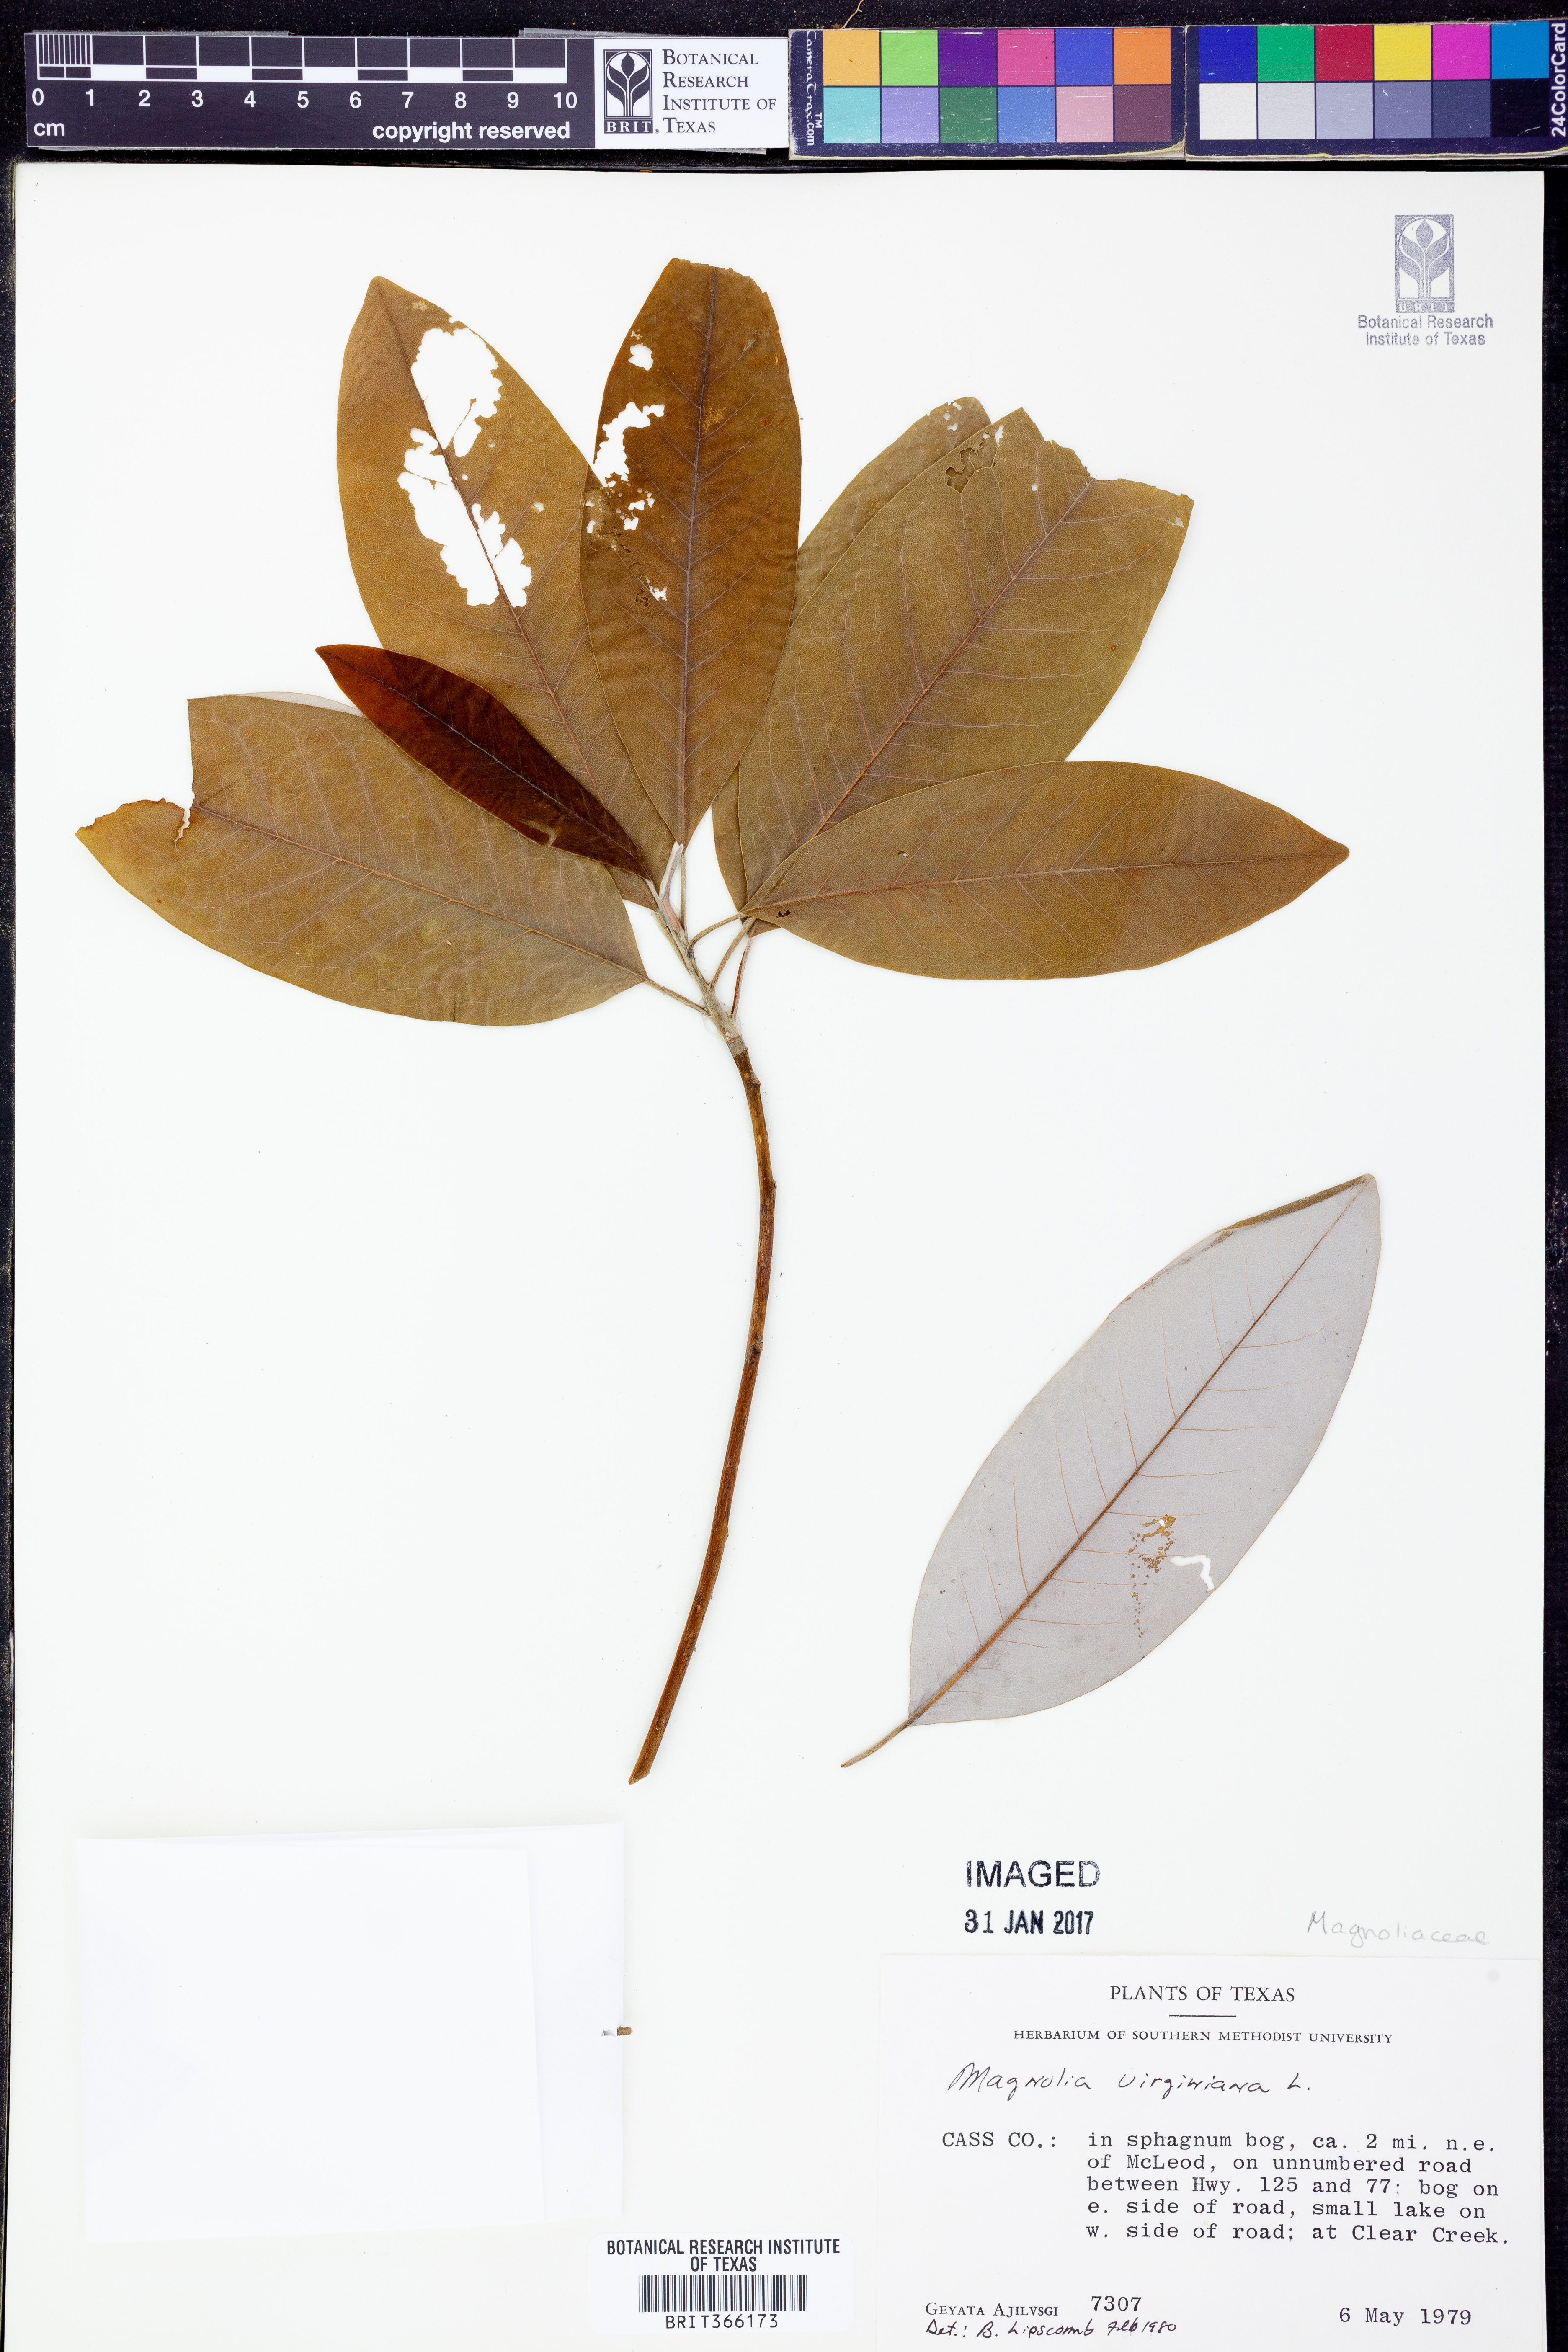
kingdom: Plantae
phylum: Tracheophyta
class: Magnoliopsida
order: Magnoliales
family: Magnoliaceae
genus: Magnolia
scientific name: Magnolia virginiana
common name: Swamp bay
